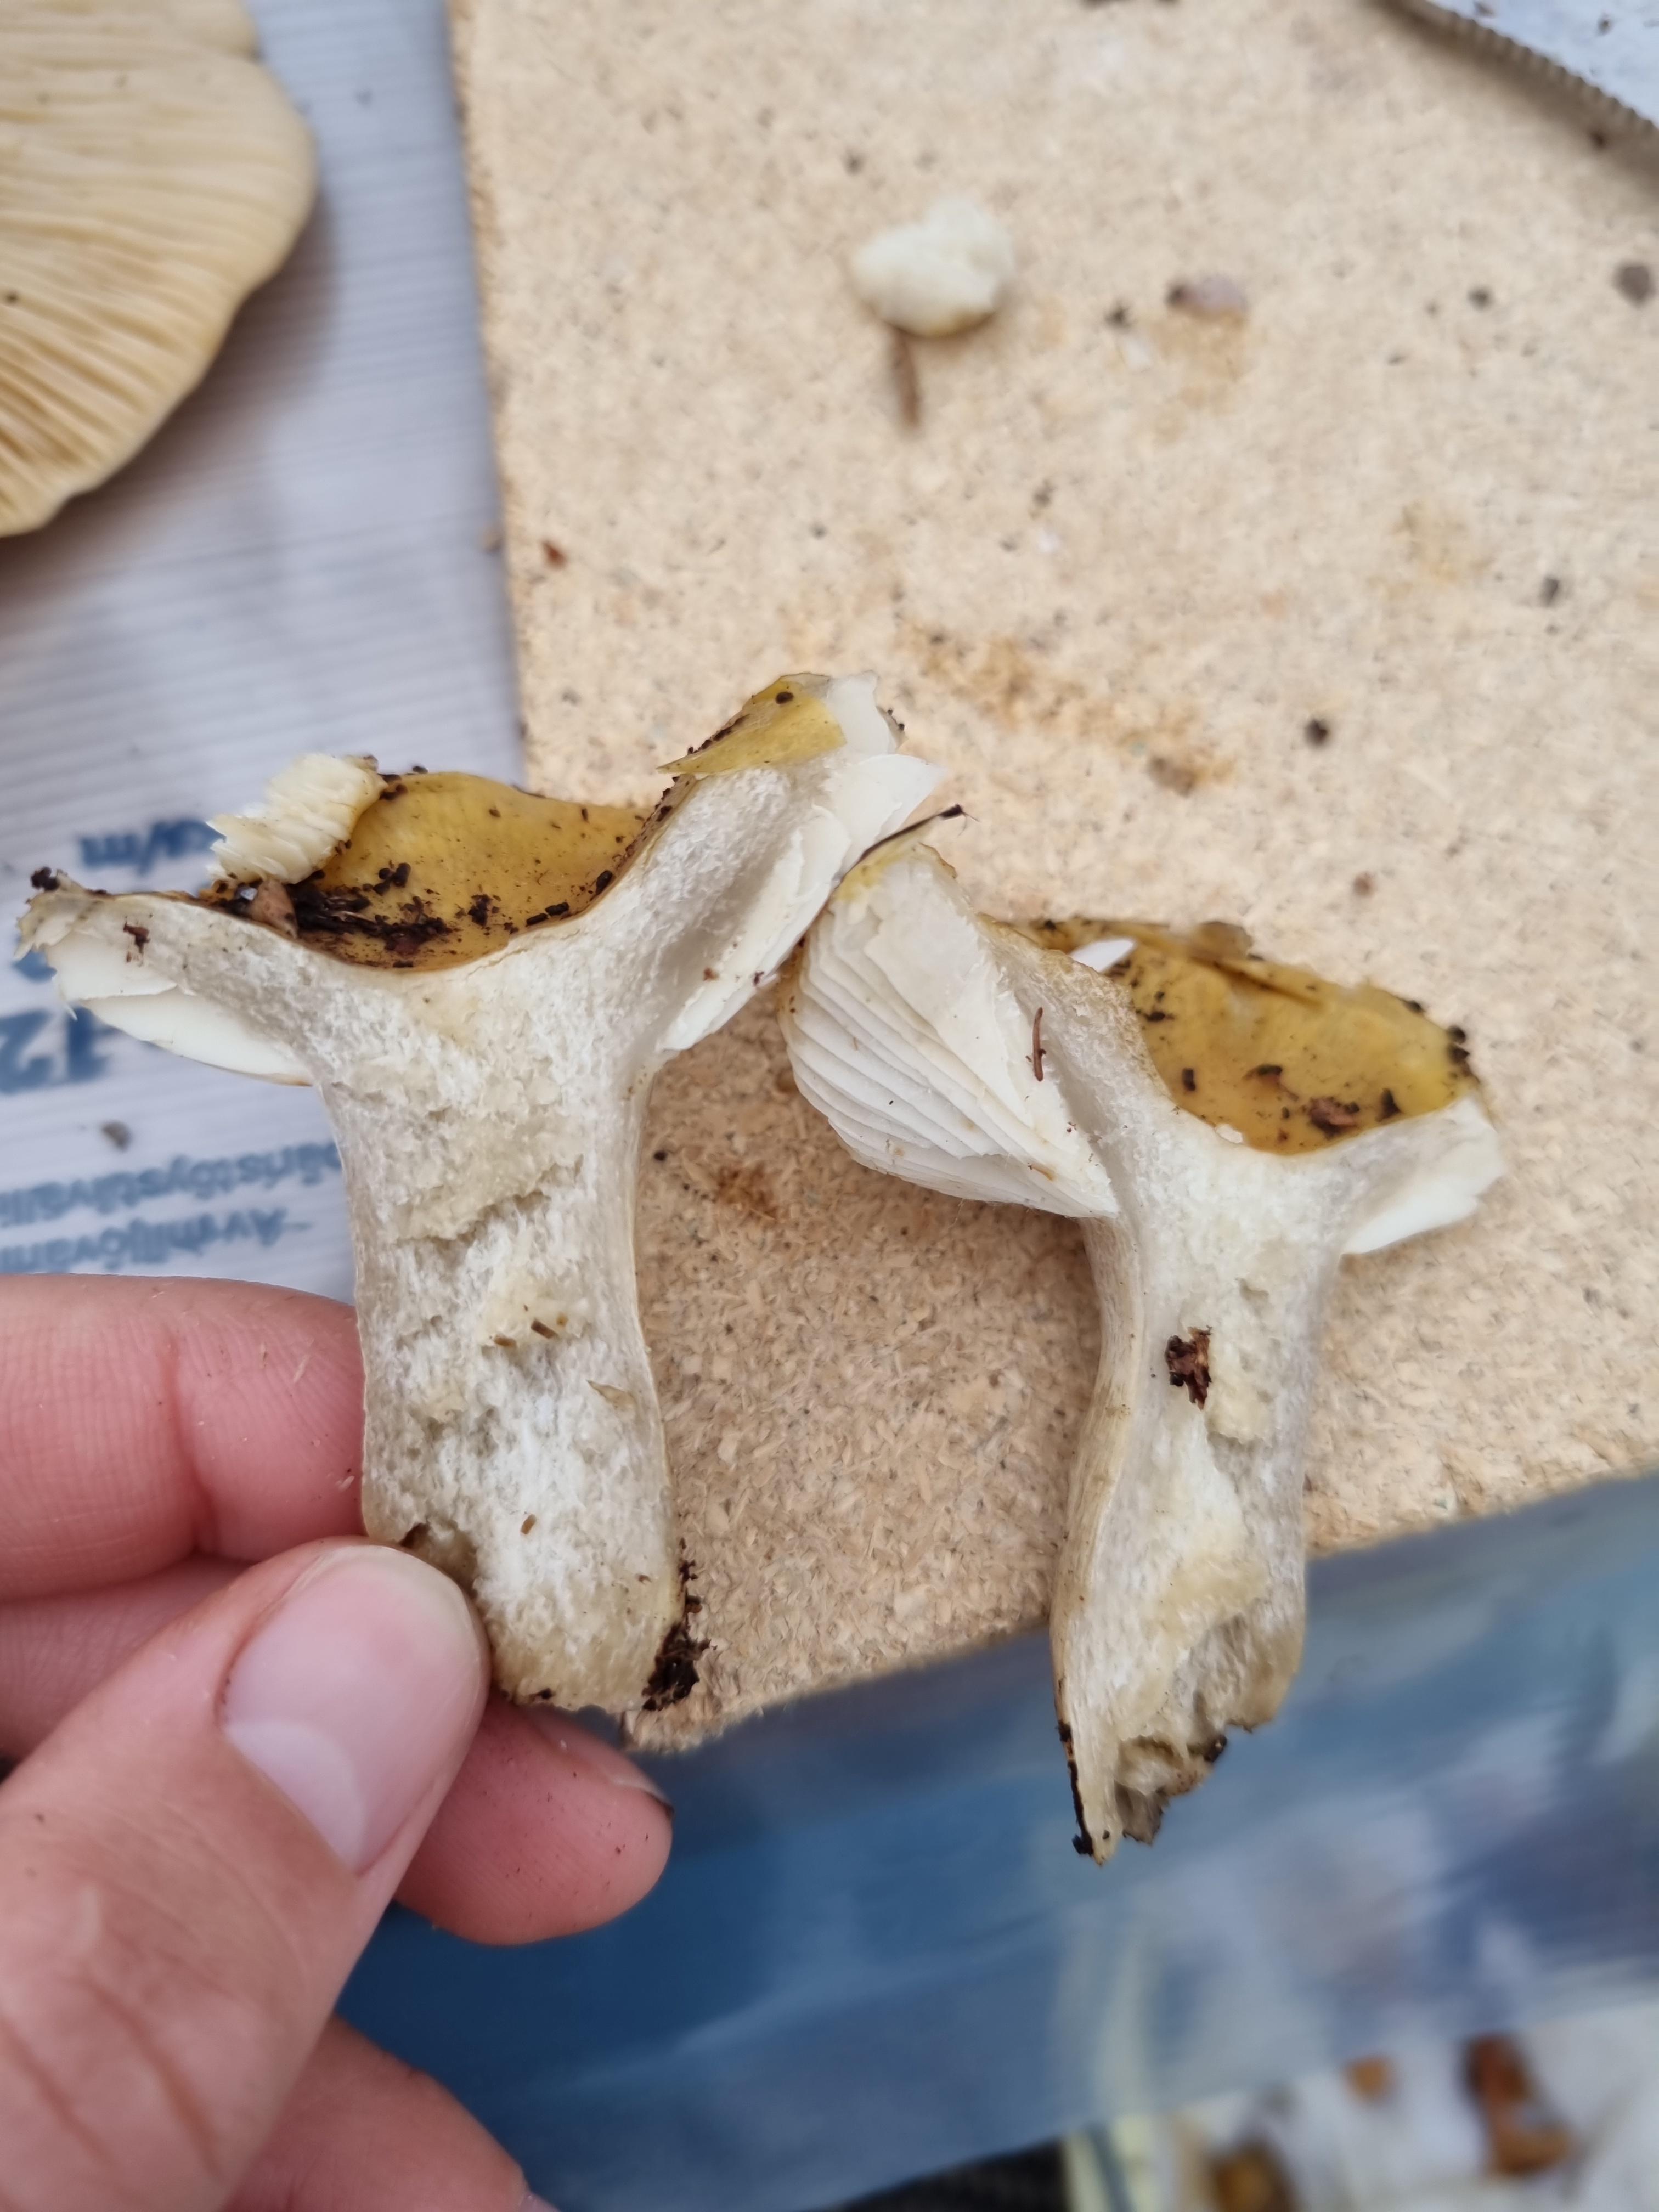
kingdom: Fungi
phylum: Basidiomycota
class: Agaricomycetes
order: Russulales
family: Russulaceae
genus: Russula
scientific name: Russula ochroleuca
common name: okkergul skørhat
